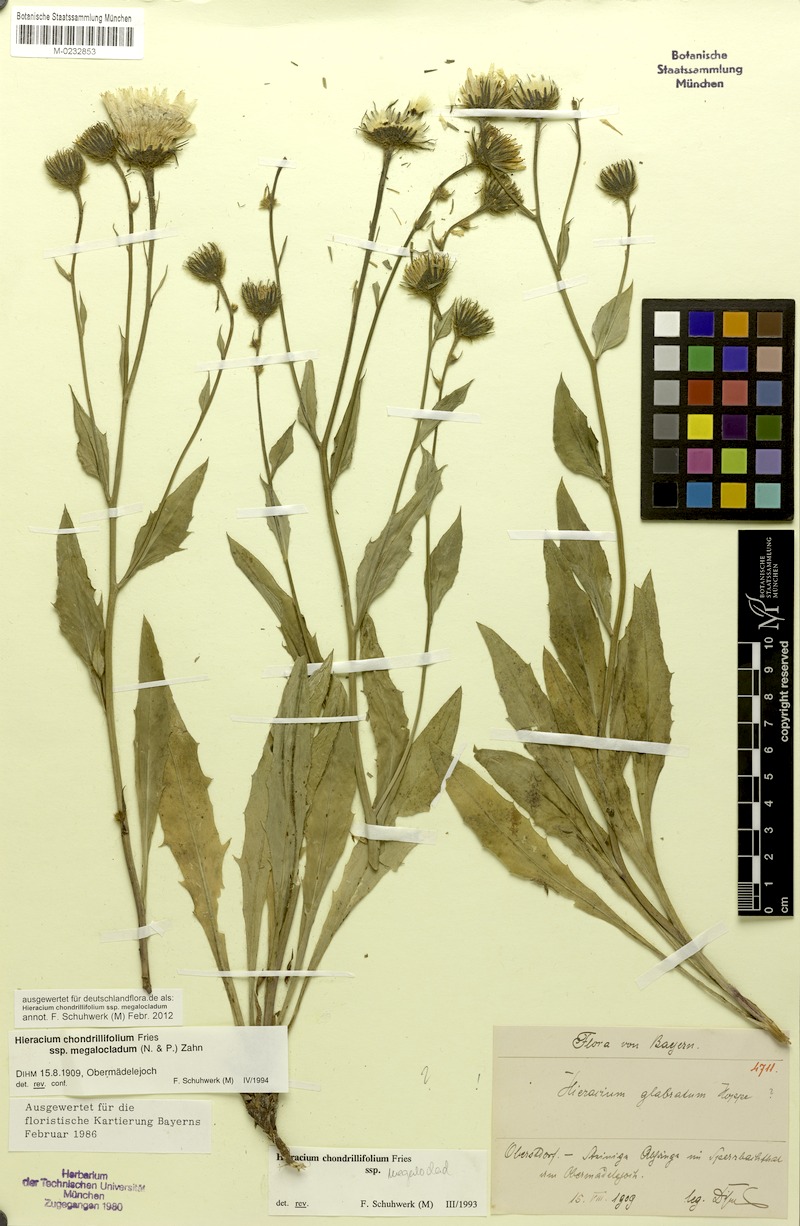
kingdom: Plantae
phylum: Tracheophyta
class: Magnoliopsida
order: Asterales
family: Asteraceae
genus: Hieracium
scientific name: Hieracium subspeciosum
